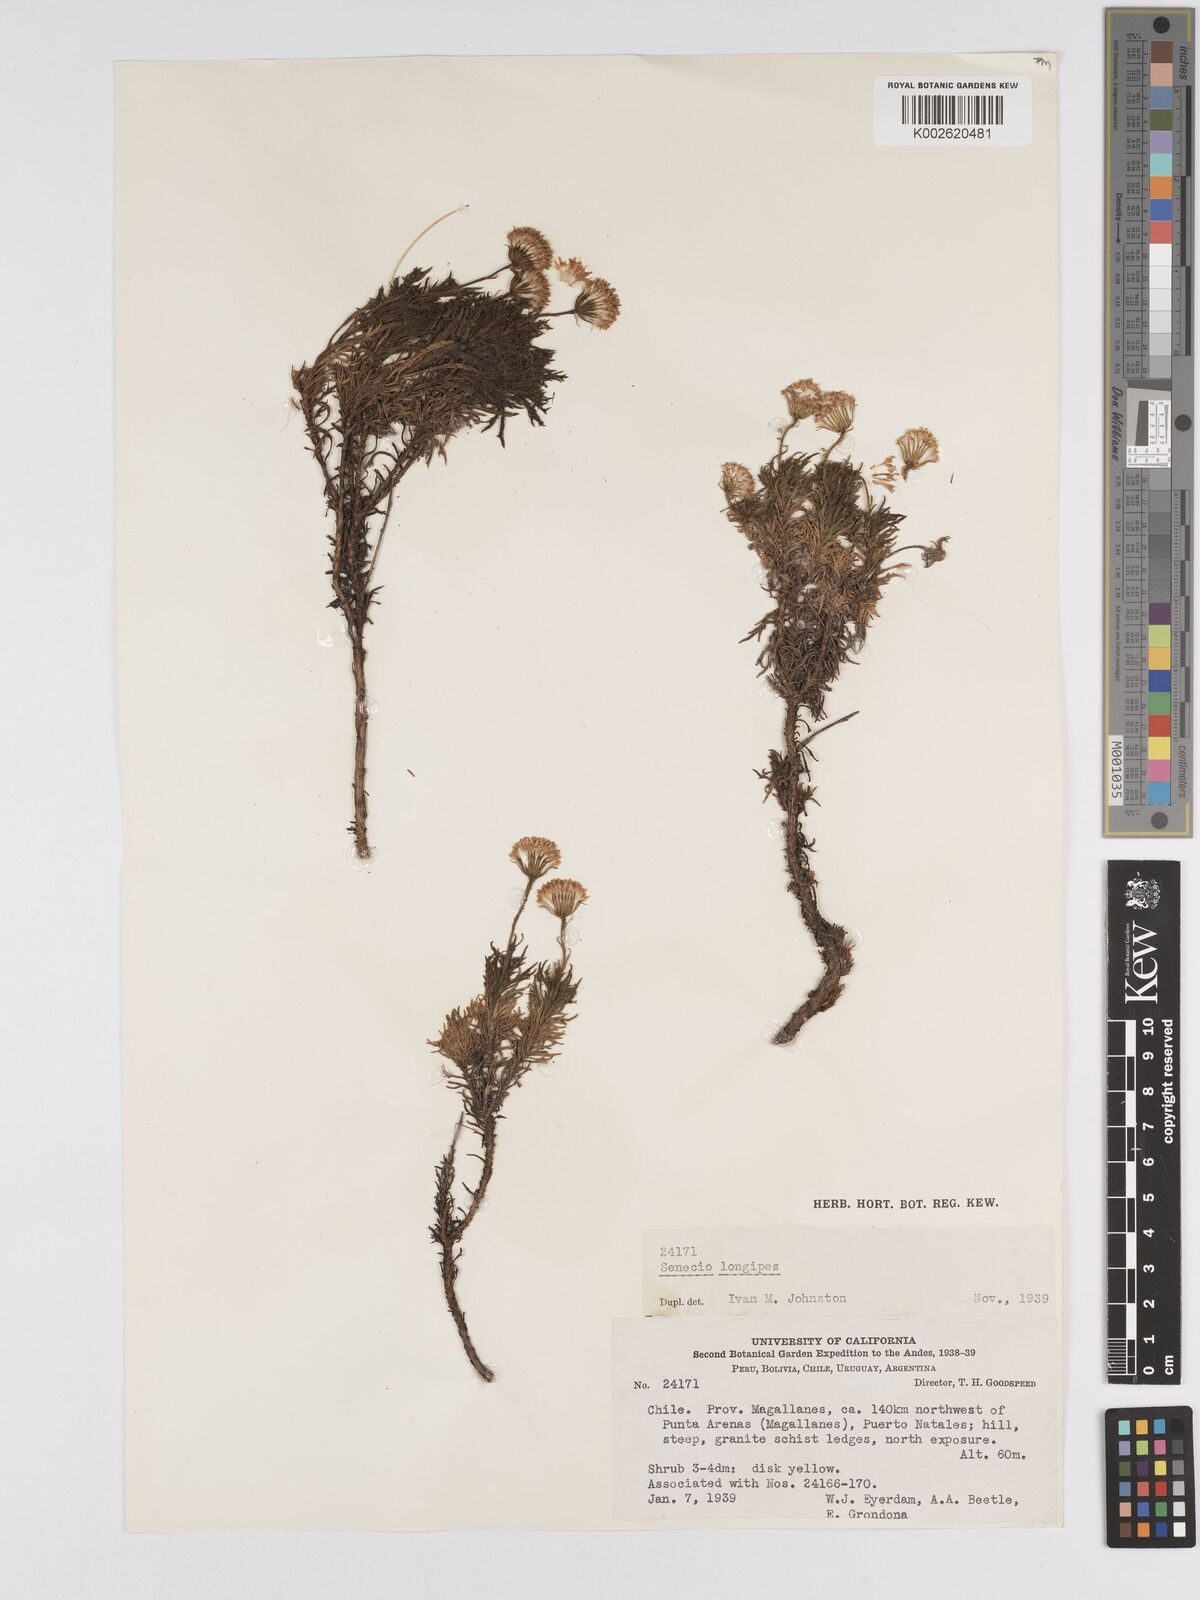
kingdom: Plantae
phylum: Tracheophyta
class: Magnoliopsida
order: Asterales
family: Asteraceae
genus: Senecio
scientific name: Senecio tricuspidatus
